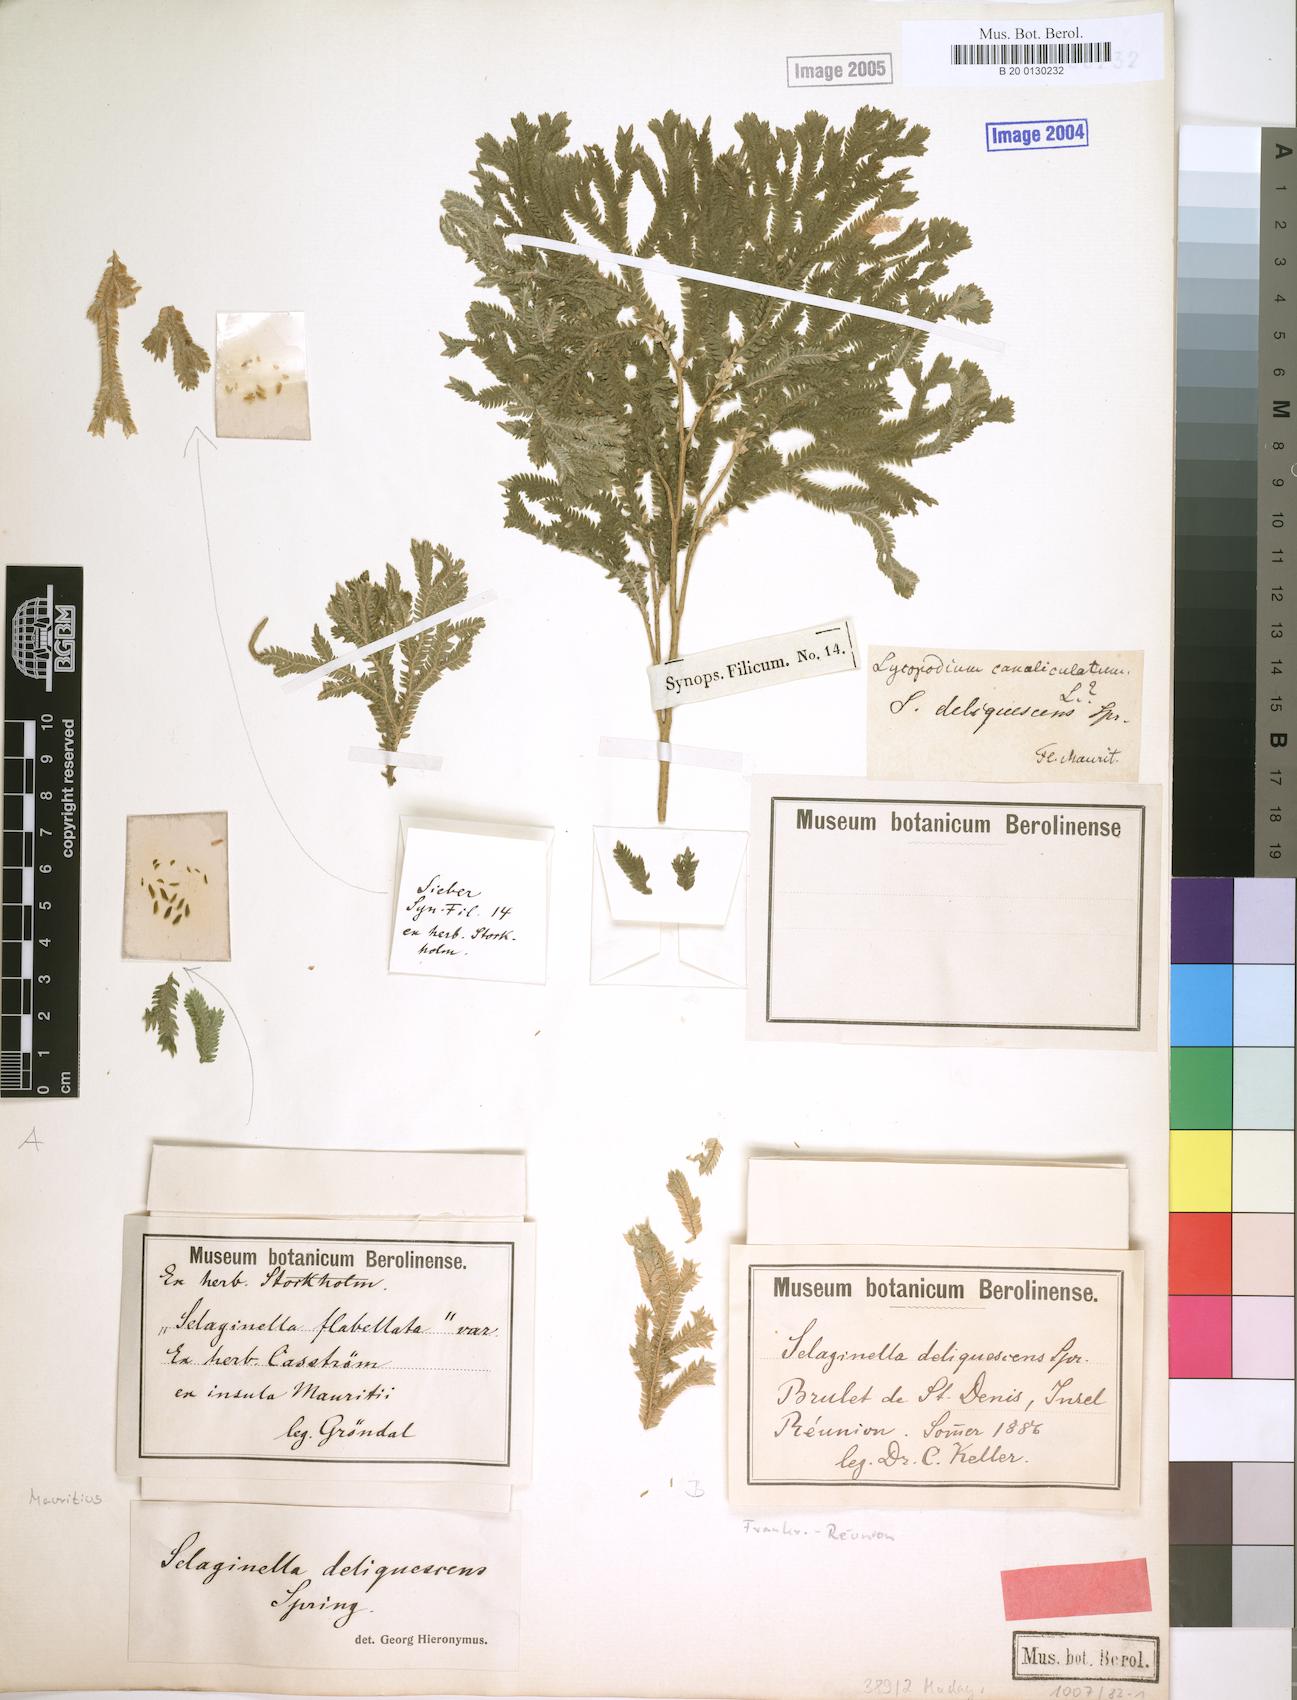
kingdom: Plantae
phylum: Tracheophyta
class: Lycopodiopsida
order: Selaginellales
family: Selaginellaceae
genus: Selaginella
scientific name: Selaginella fruticulosa
